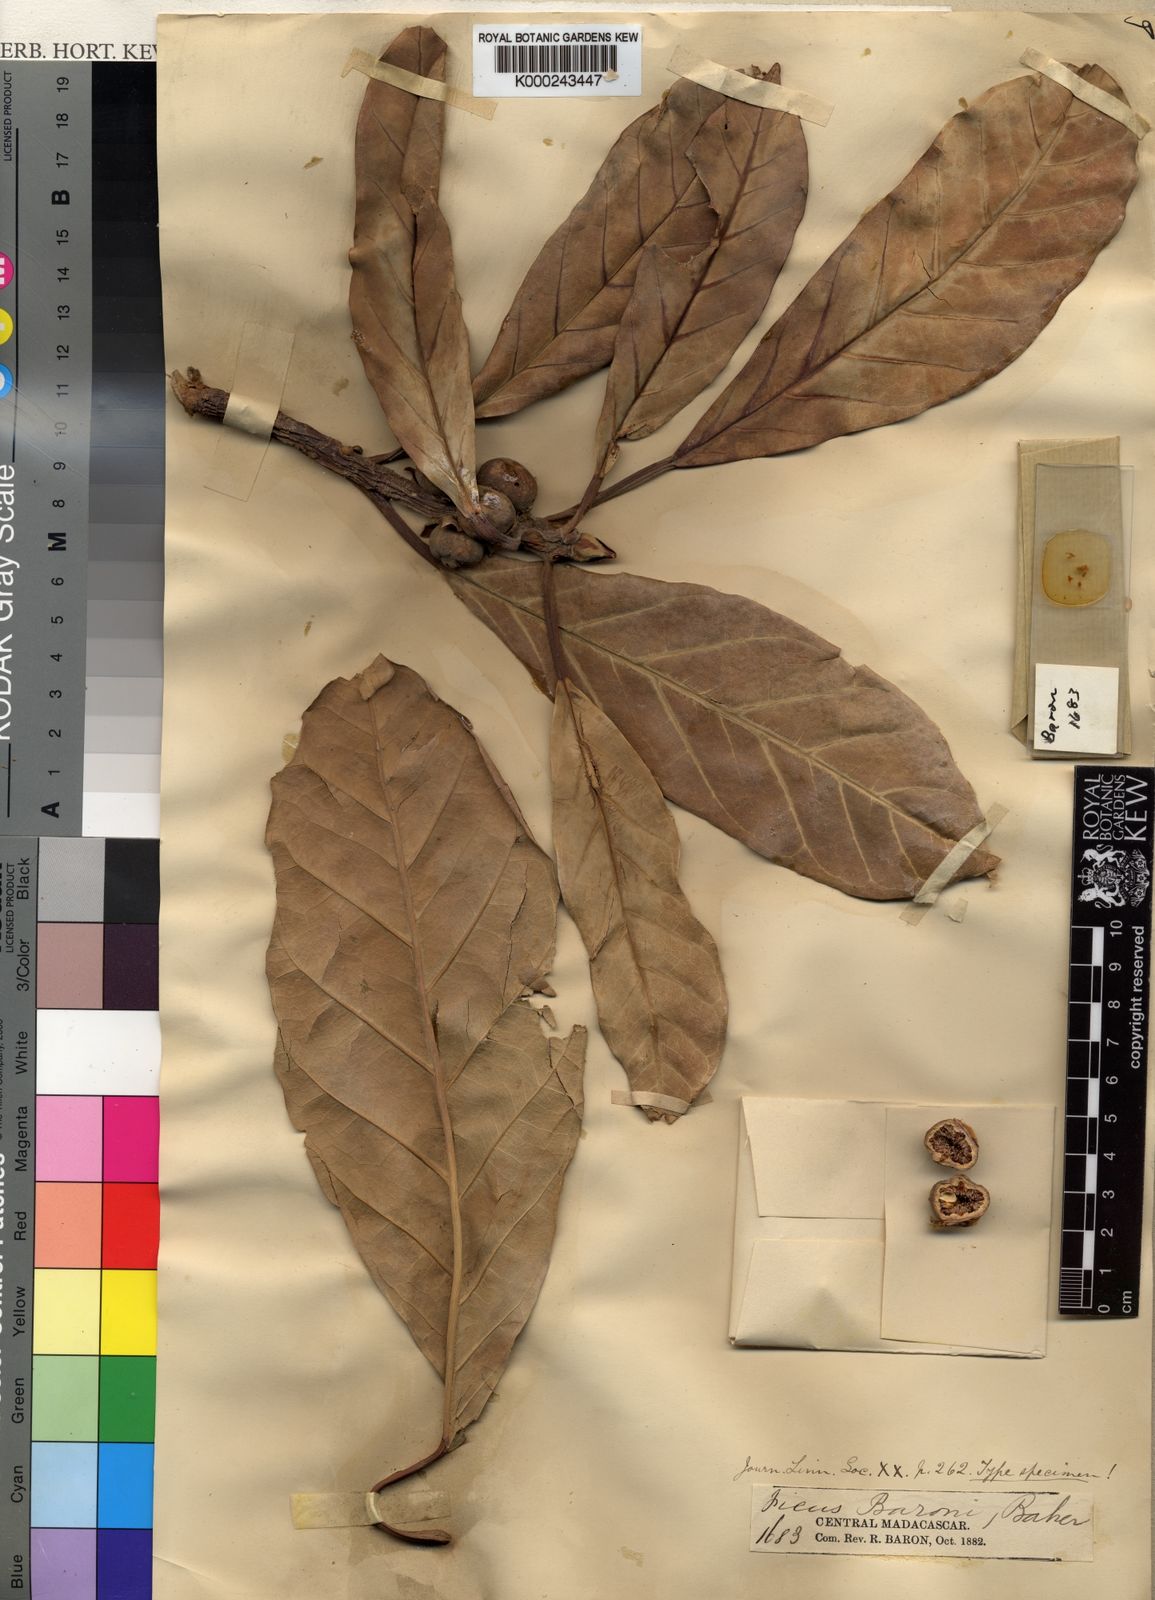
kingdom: Plantae
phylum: Tracheophyta
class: Magnoliopsida
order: Rosales
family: Moraceae
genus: Ficus
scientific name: Ficus lutea
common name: Giant-leaved fig
